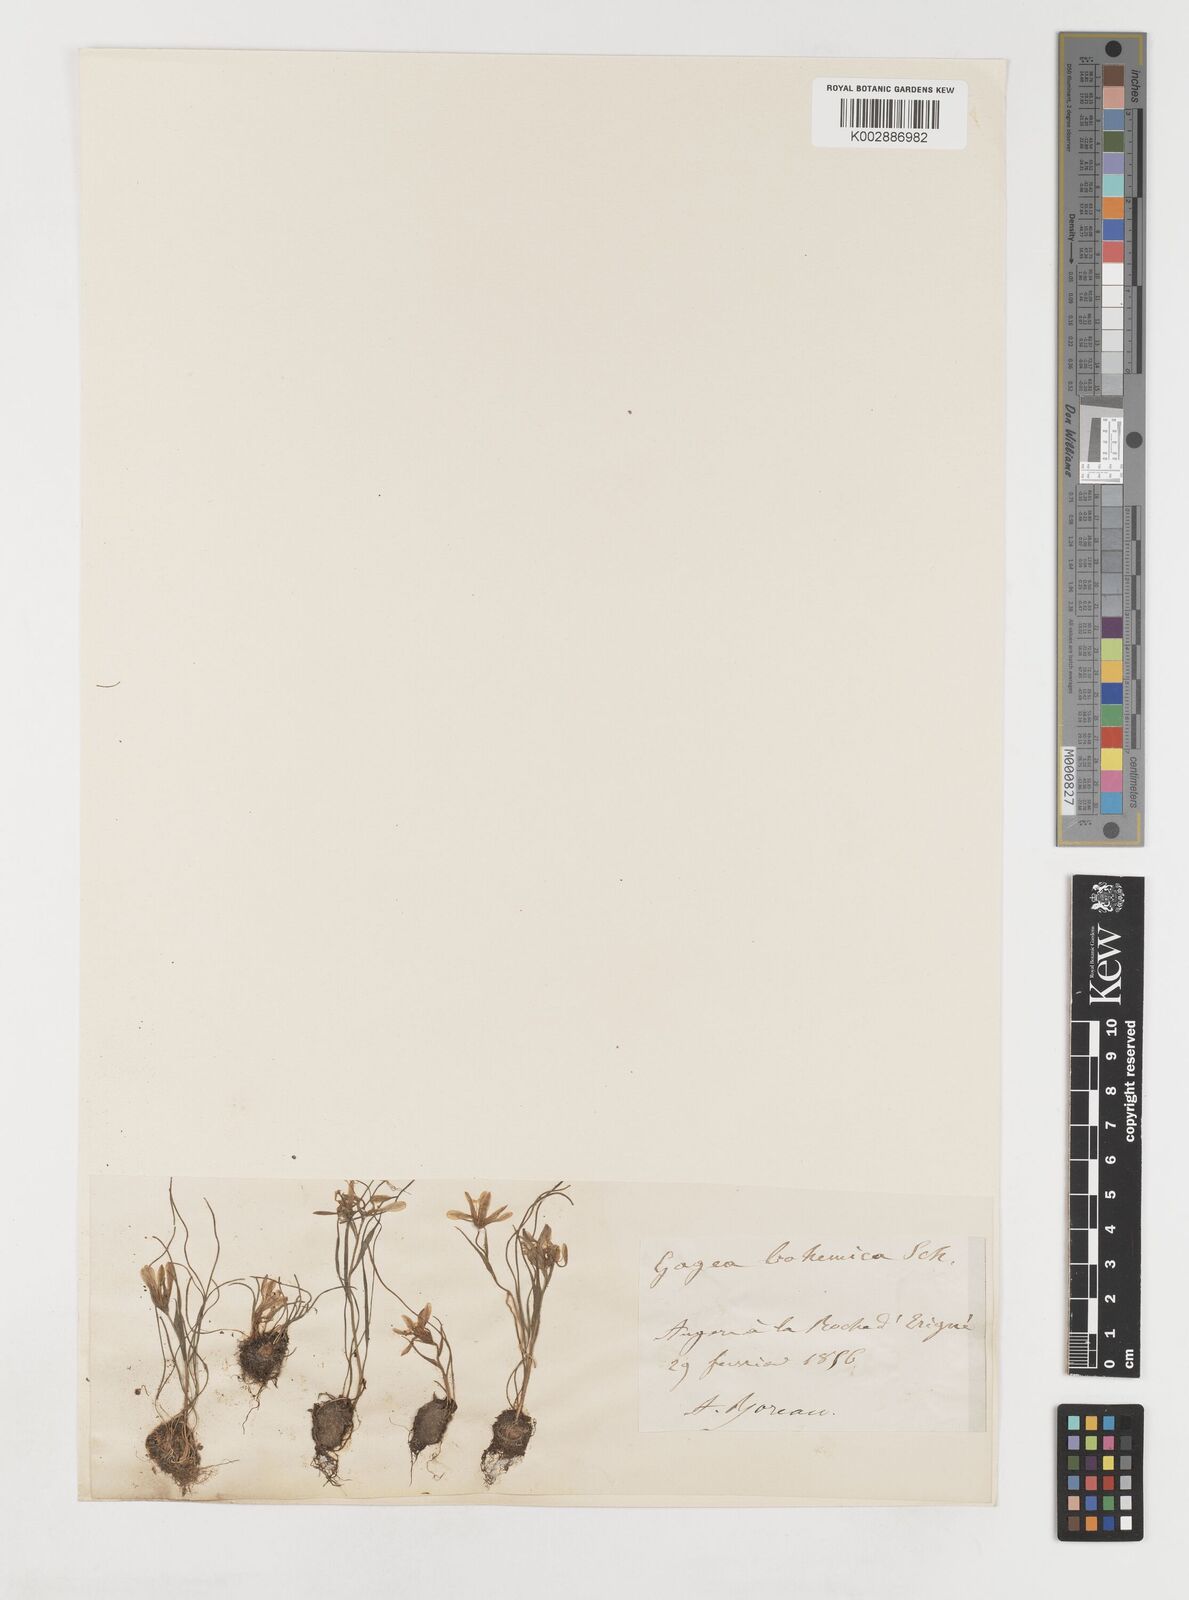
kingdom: Plantae
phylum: Tracheophyta
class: Liliopsida
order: Liliales
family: Liliaceae
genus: Gagea
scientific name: Gagea bohemica
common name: Early star-of-bethlehem
